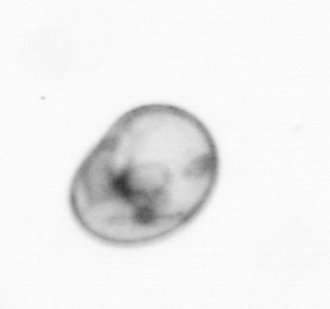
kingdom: Chromista
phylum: Myzozoa
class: Dinophyceae
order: Noctilucales
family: Noctilucaceae
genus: Noctiluca
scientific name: Noctiluca scintillans
